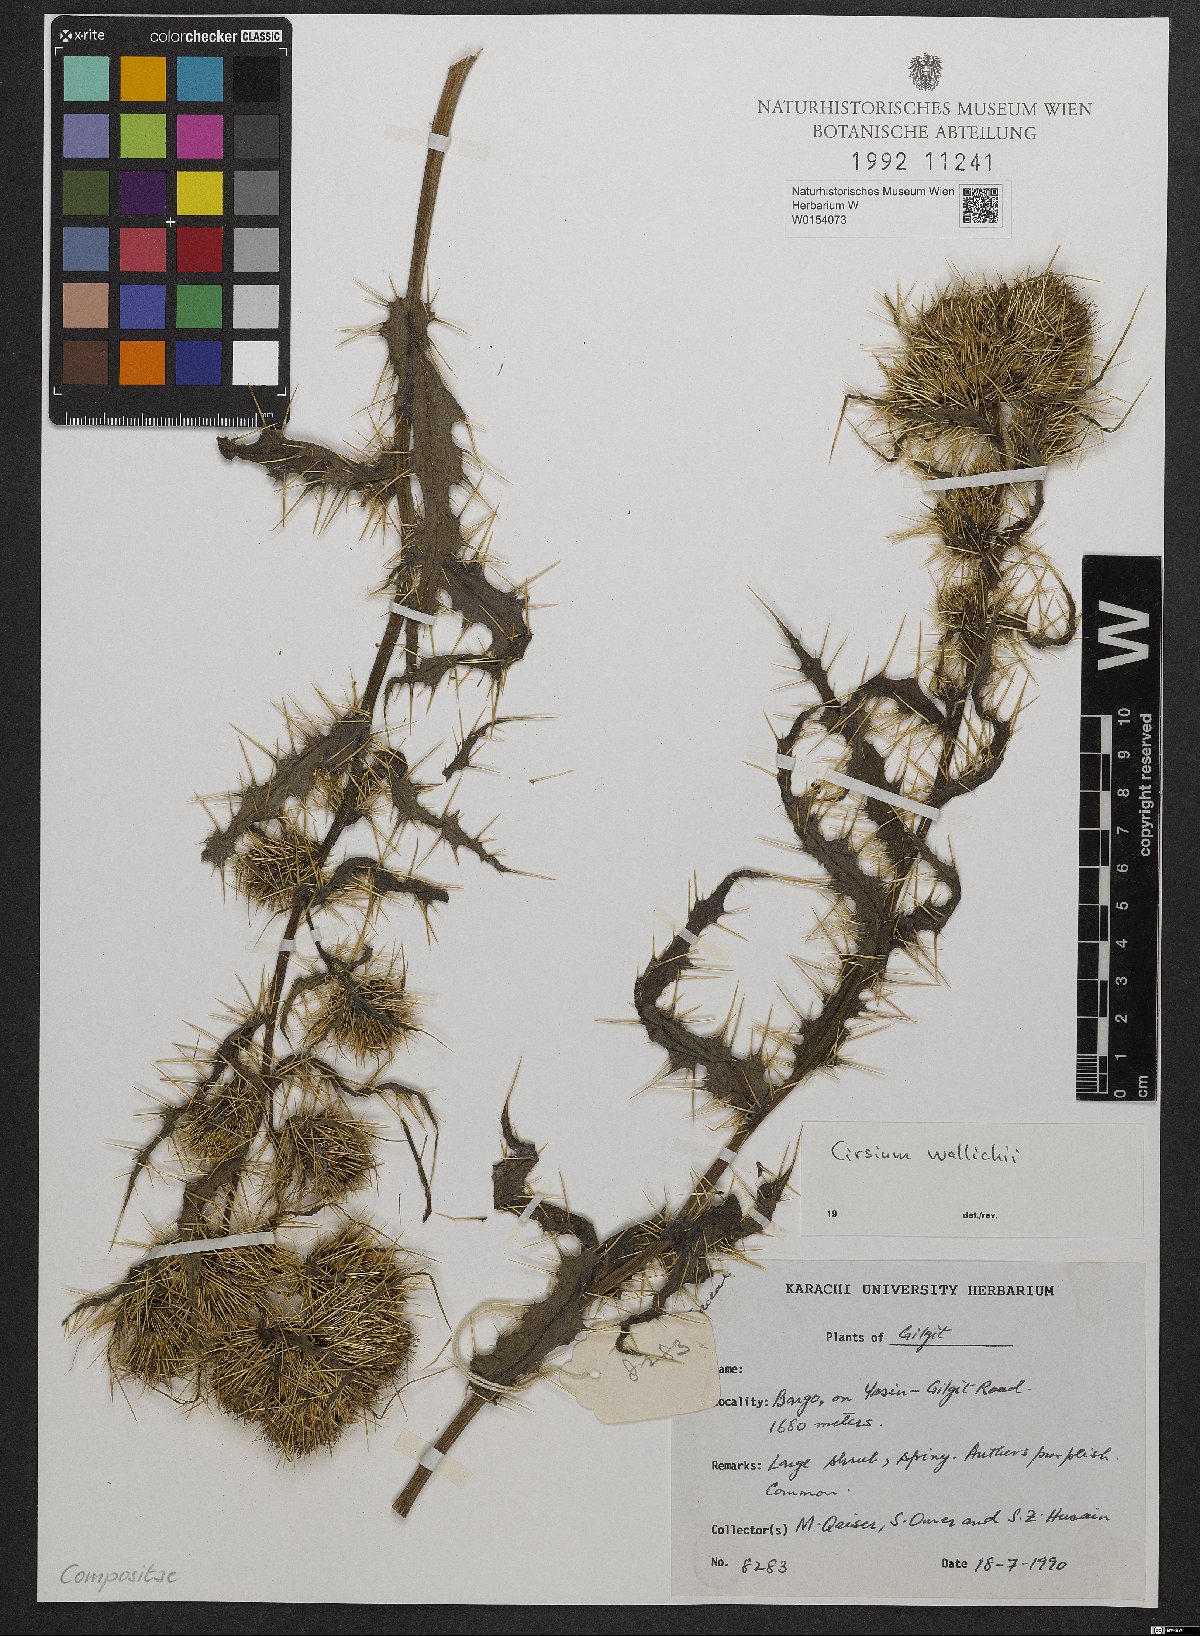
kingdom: Plantae
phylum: Tracheophyta
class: Magnoliopsida
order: Asterales
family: Asteraceae
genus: Cirsium
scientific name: Cirsium wallichii
